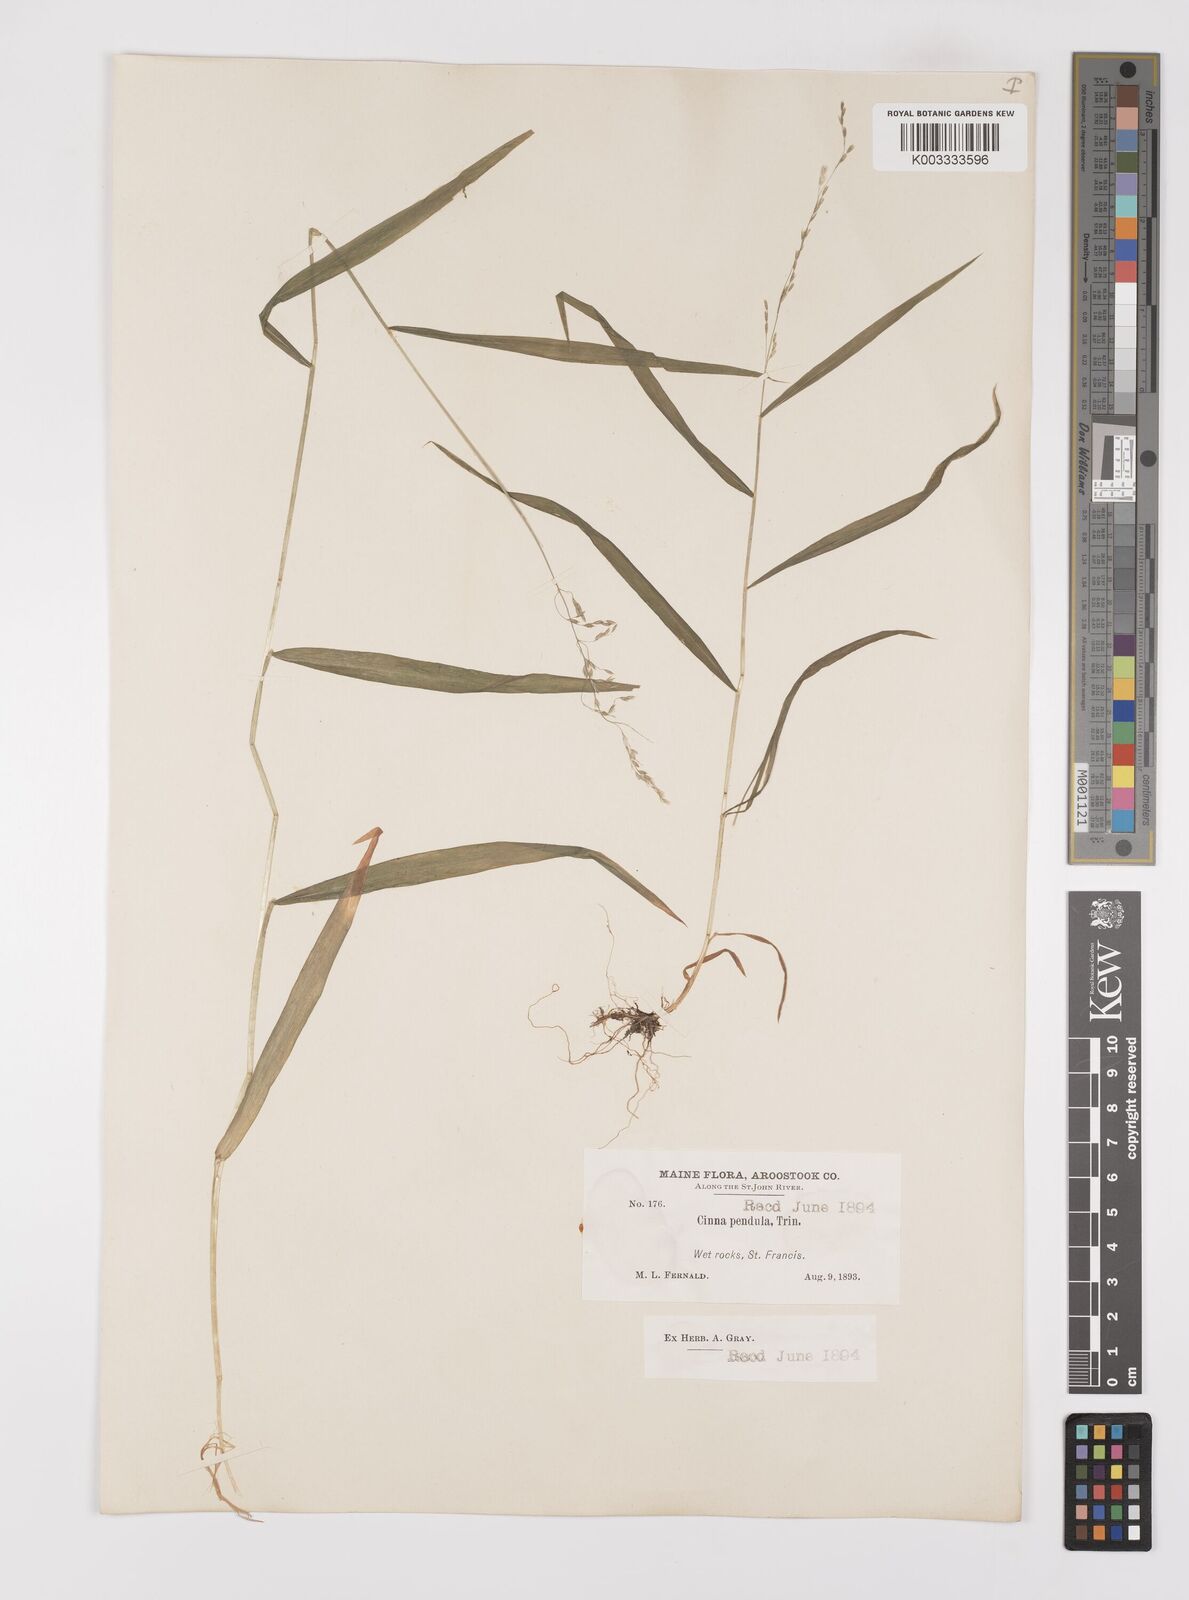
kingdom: Plantae
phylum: Tracheophyta
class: Liliopsida
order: Poales
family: Poaceae
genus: Cinna
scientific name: Cinna latifolia
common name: Drooping woodreed
